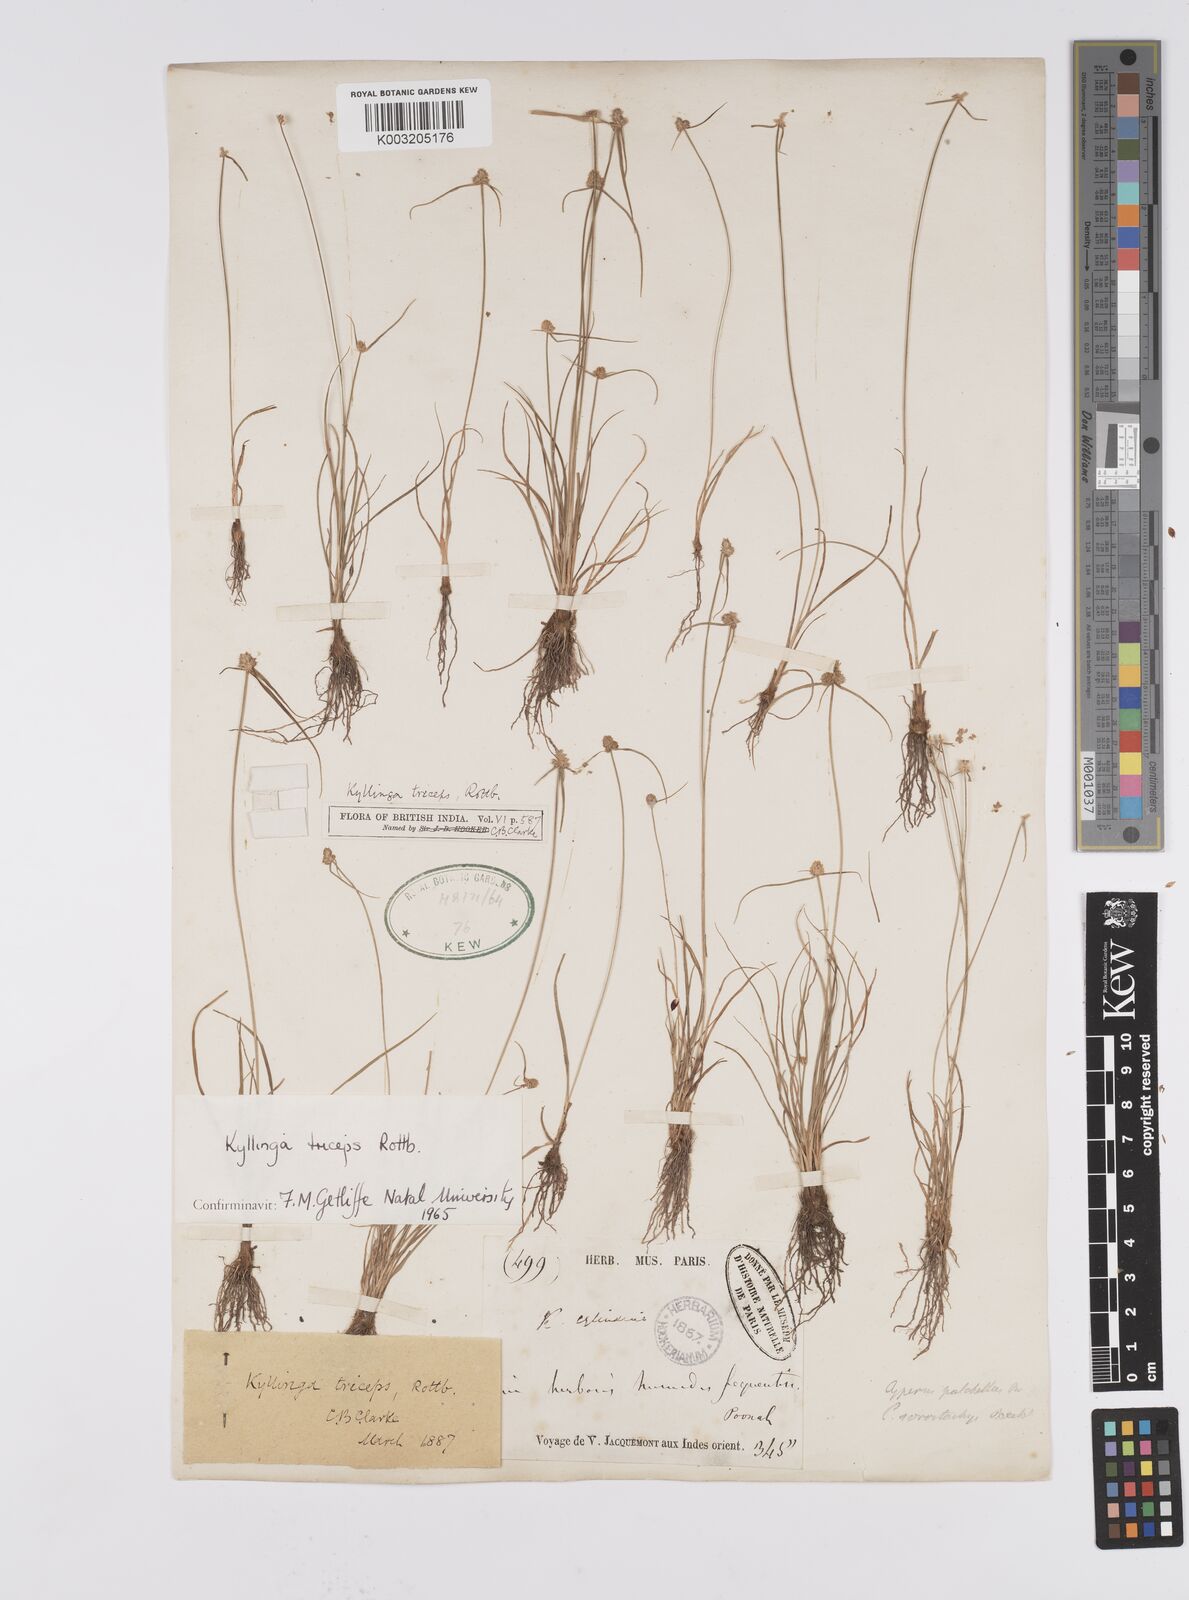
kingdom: Plantae
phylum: Tracheophyta
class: Liliopsida
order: Poales
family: Cyperaceae
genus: Cyperus
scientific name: Cyperus
